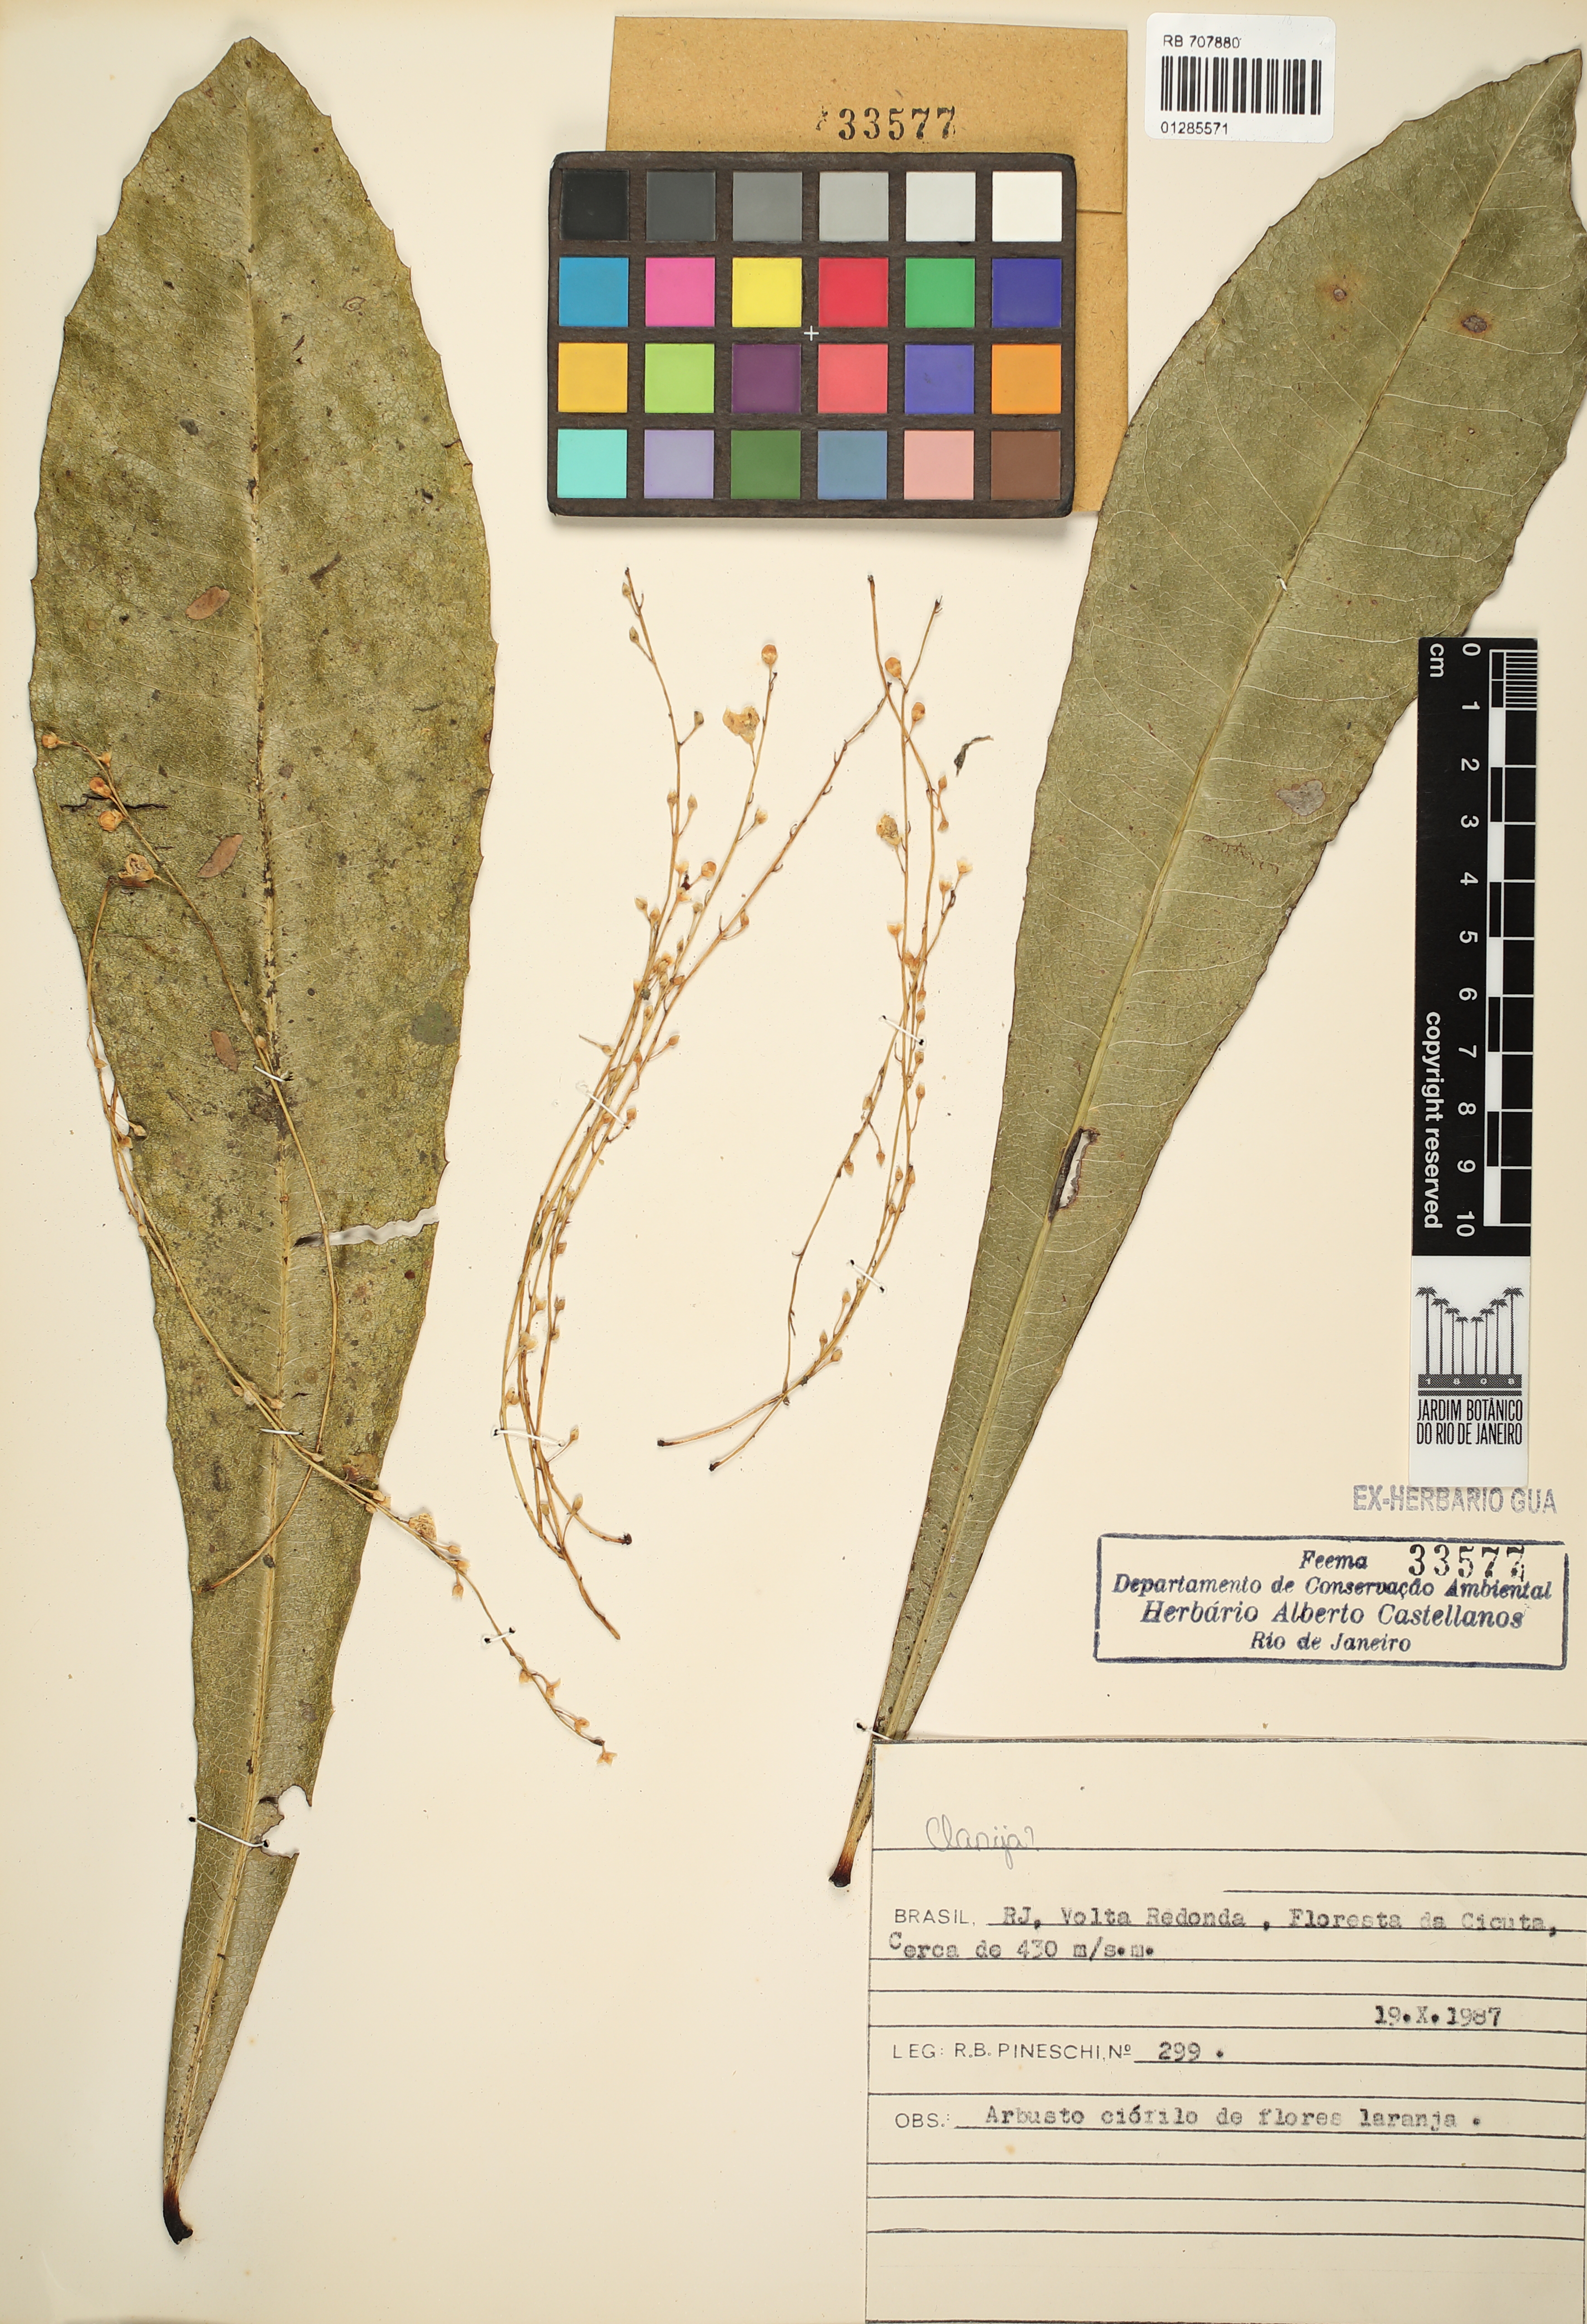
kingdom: Plantae
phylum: Tracheophyta
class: Magnoliopsida
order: Ericales
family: Primulaceae
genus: Clavija
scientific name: Clavija
